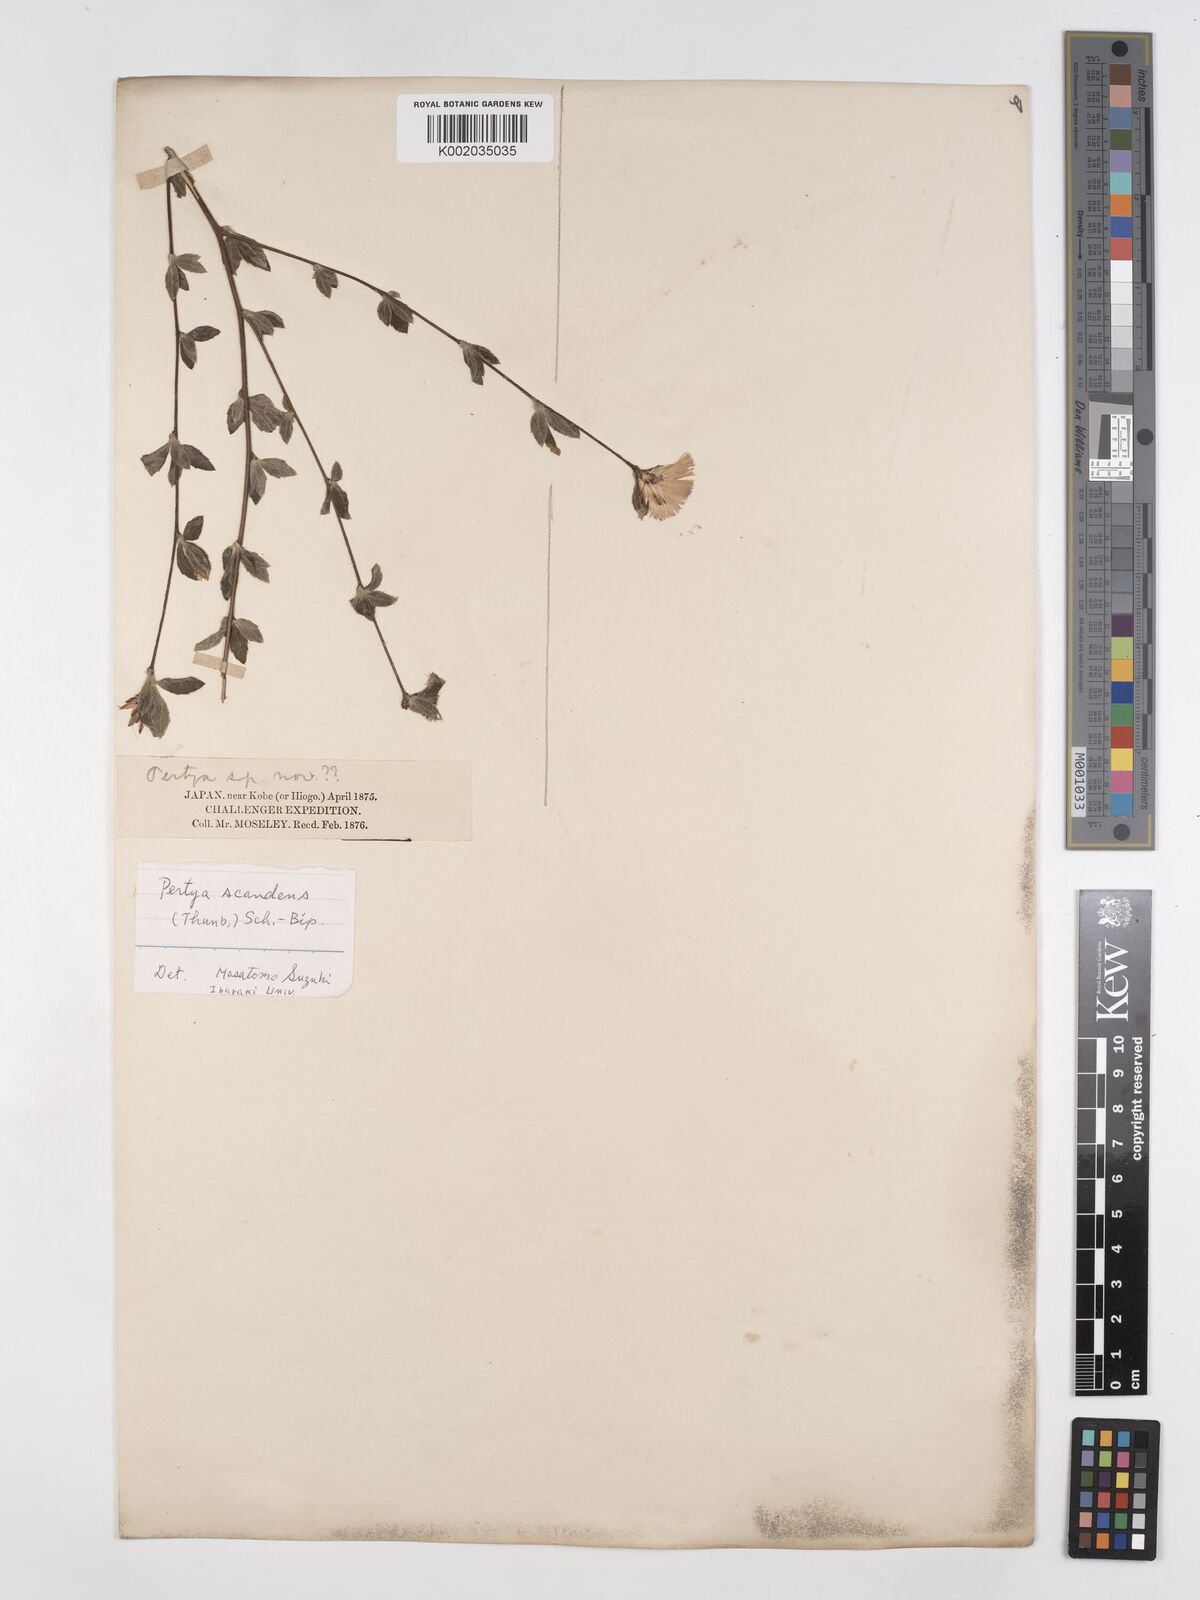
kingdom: Plantae
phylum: Tracheophyta
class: Magnoliopsida
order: Asterales
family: Asteraceae
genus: Pertya
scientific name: Pertya scandens
